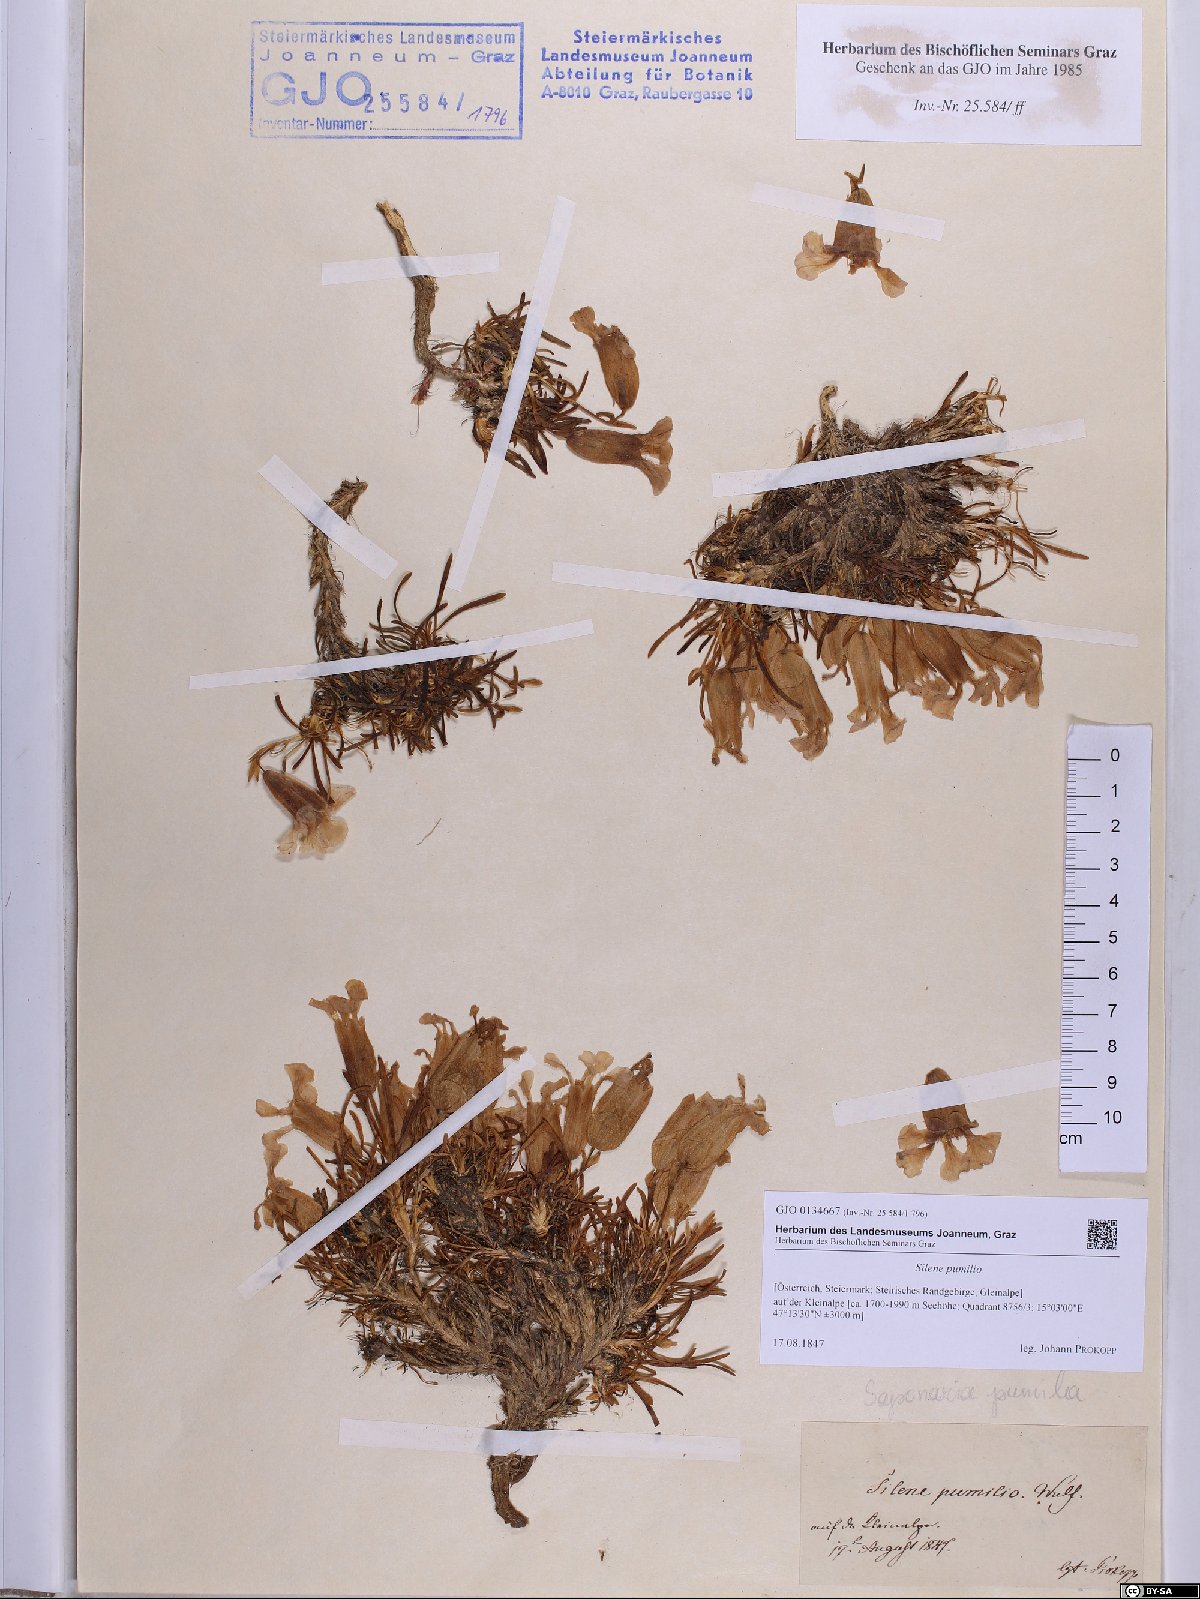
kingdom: Plantae
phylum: Tracheophyta
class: Magnoliopsida
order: Caryophyllales
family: Caryophyllaceae
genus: Saponaria
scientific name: Saponaria pumila
